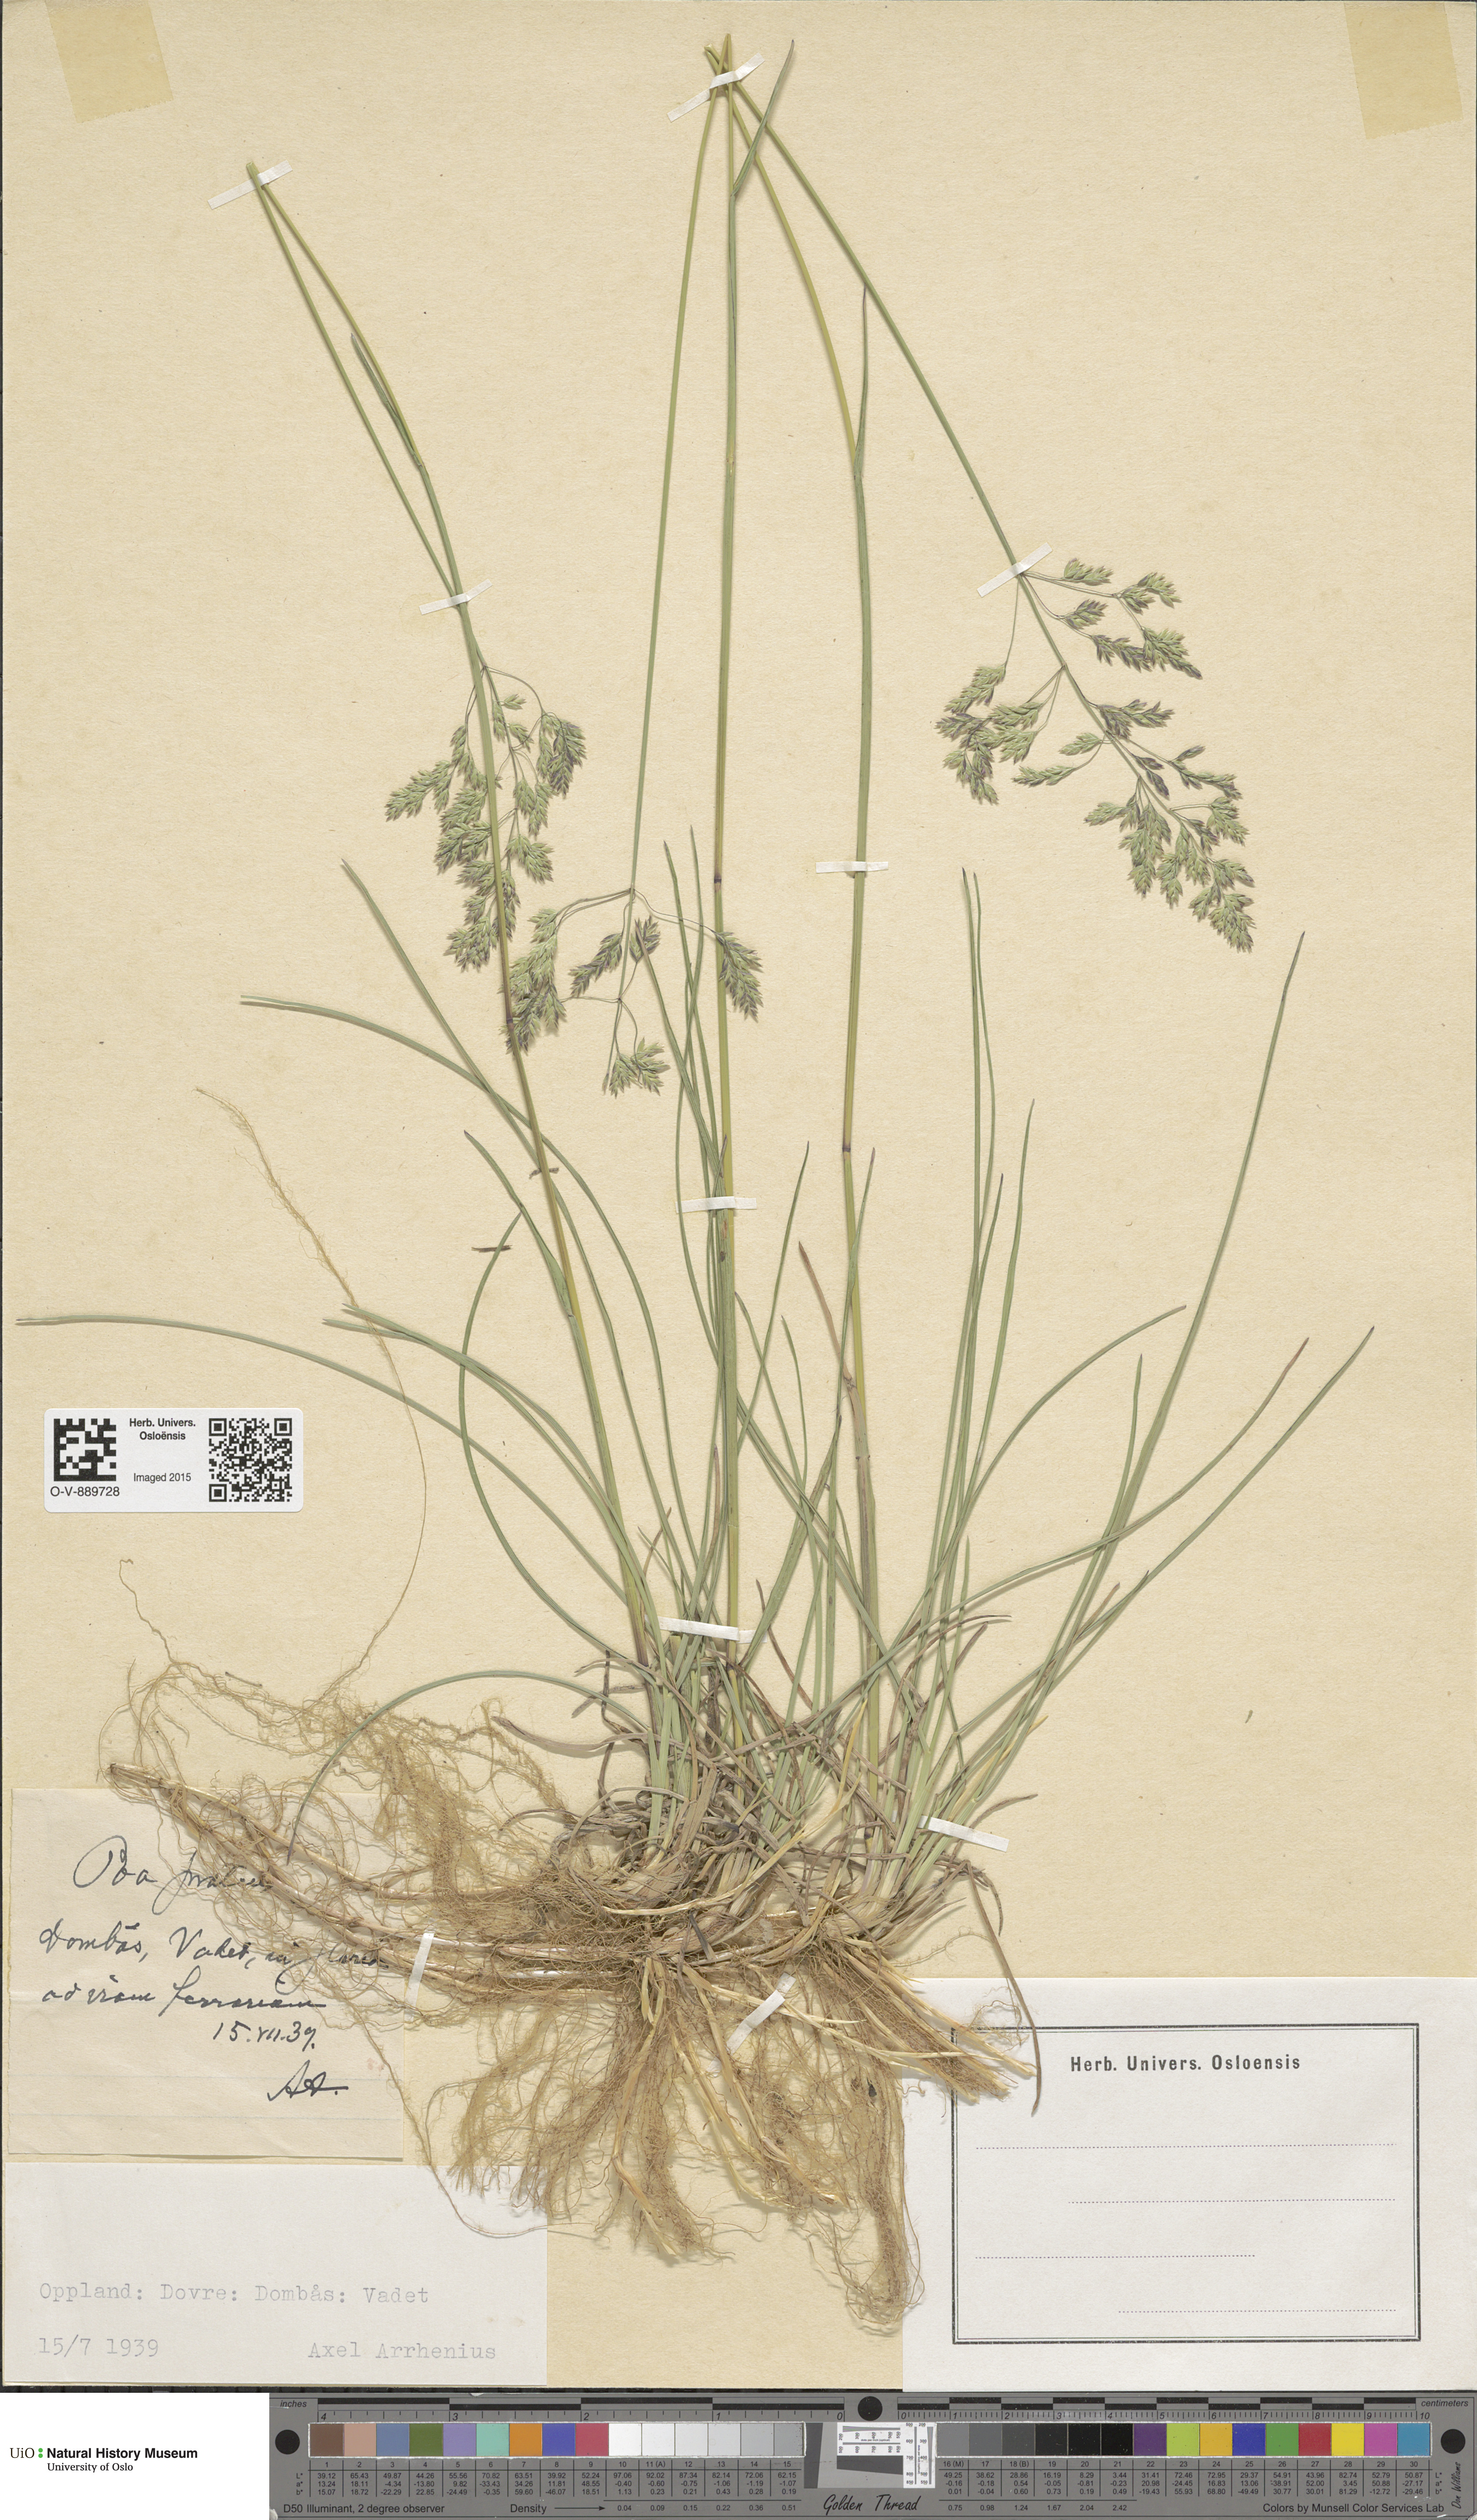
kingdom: Plantae
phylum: Tracheophyta
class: Liliopsida
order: Poales
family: Poaceae
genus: Poa
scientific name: Poa pratensis
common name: Kentucky bluegrass
